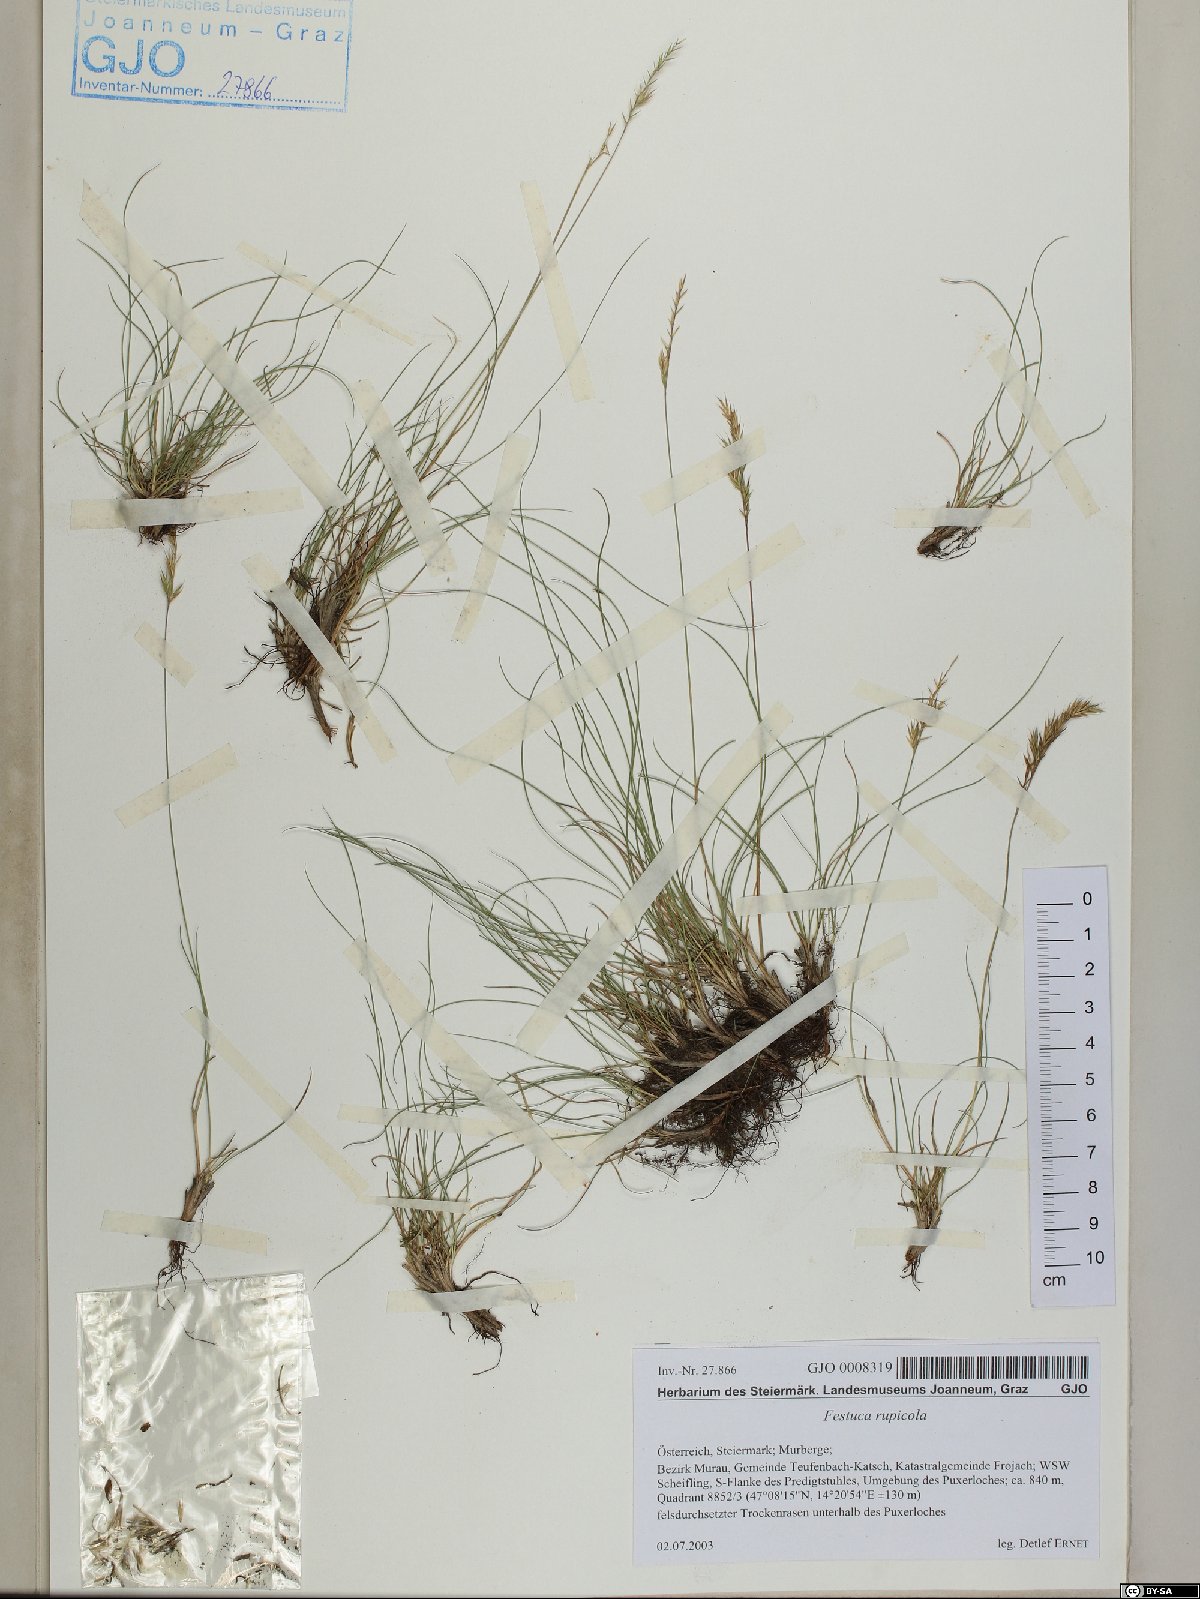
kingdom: Plantae
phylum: Tracheophyta
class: Liliopsida
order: Poales
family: Poaceae
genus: Festuca
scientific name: Festuca rupicola
